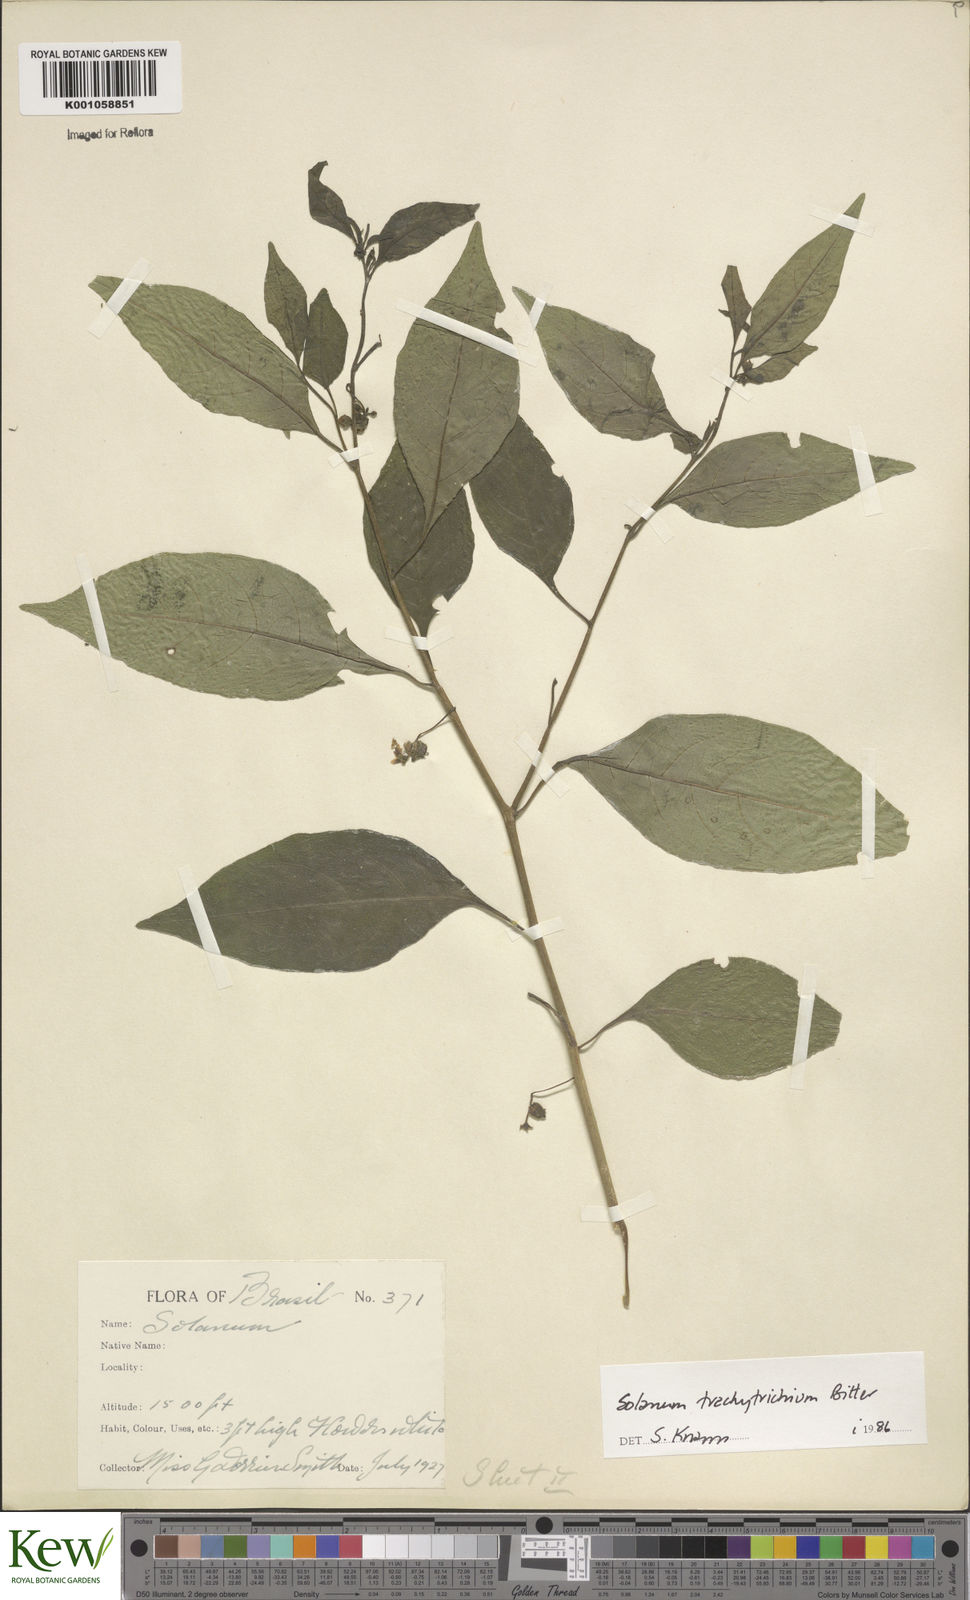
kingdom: Plantae
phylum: Tracheophyta
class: Magnoliopsida
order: Solanales
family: Solanaceae
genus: Solanum
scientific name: Solanum trachytrichium
